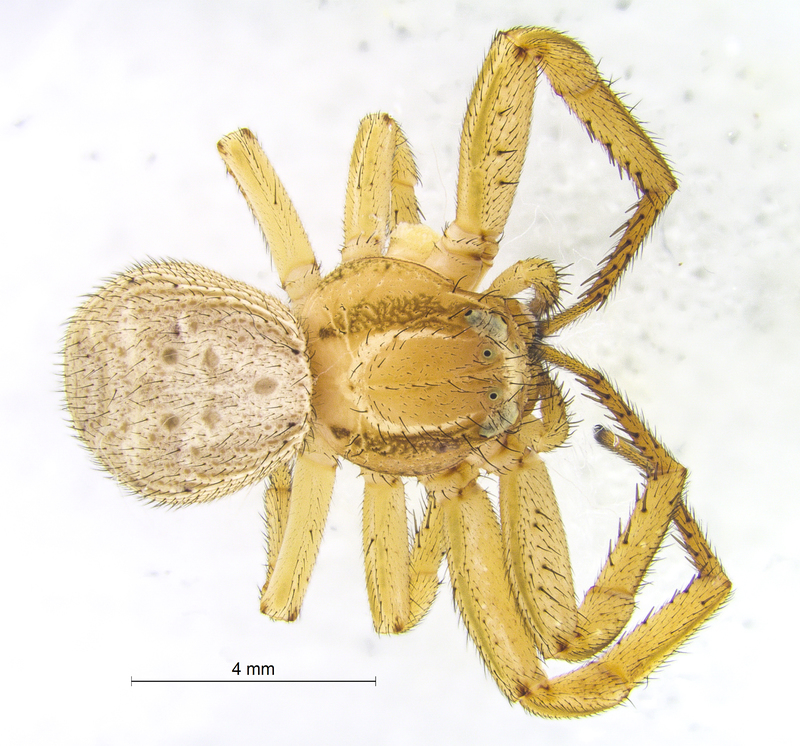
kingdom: Animalia
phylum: Arthropoda
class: Arachnida
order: Araneae
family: Thomisidae
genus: Xysticus
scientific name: Xysticus bifasciatus
